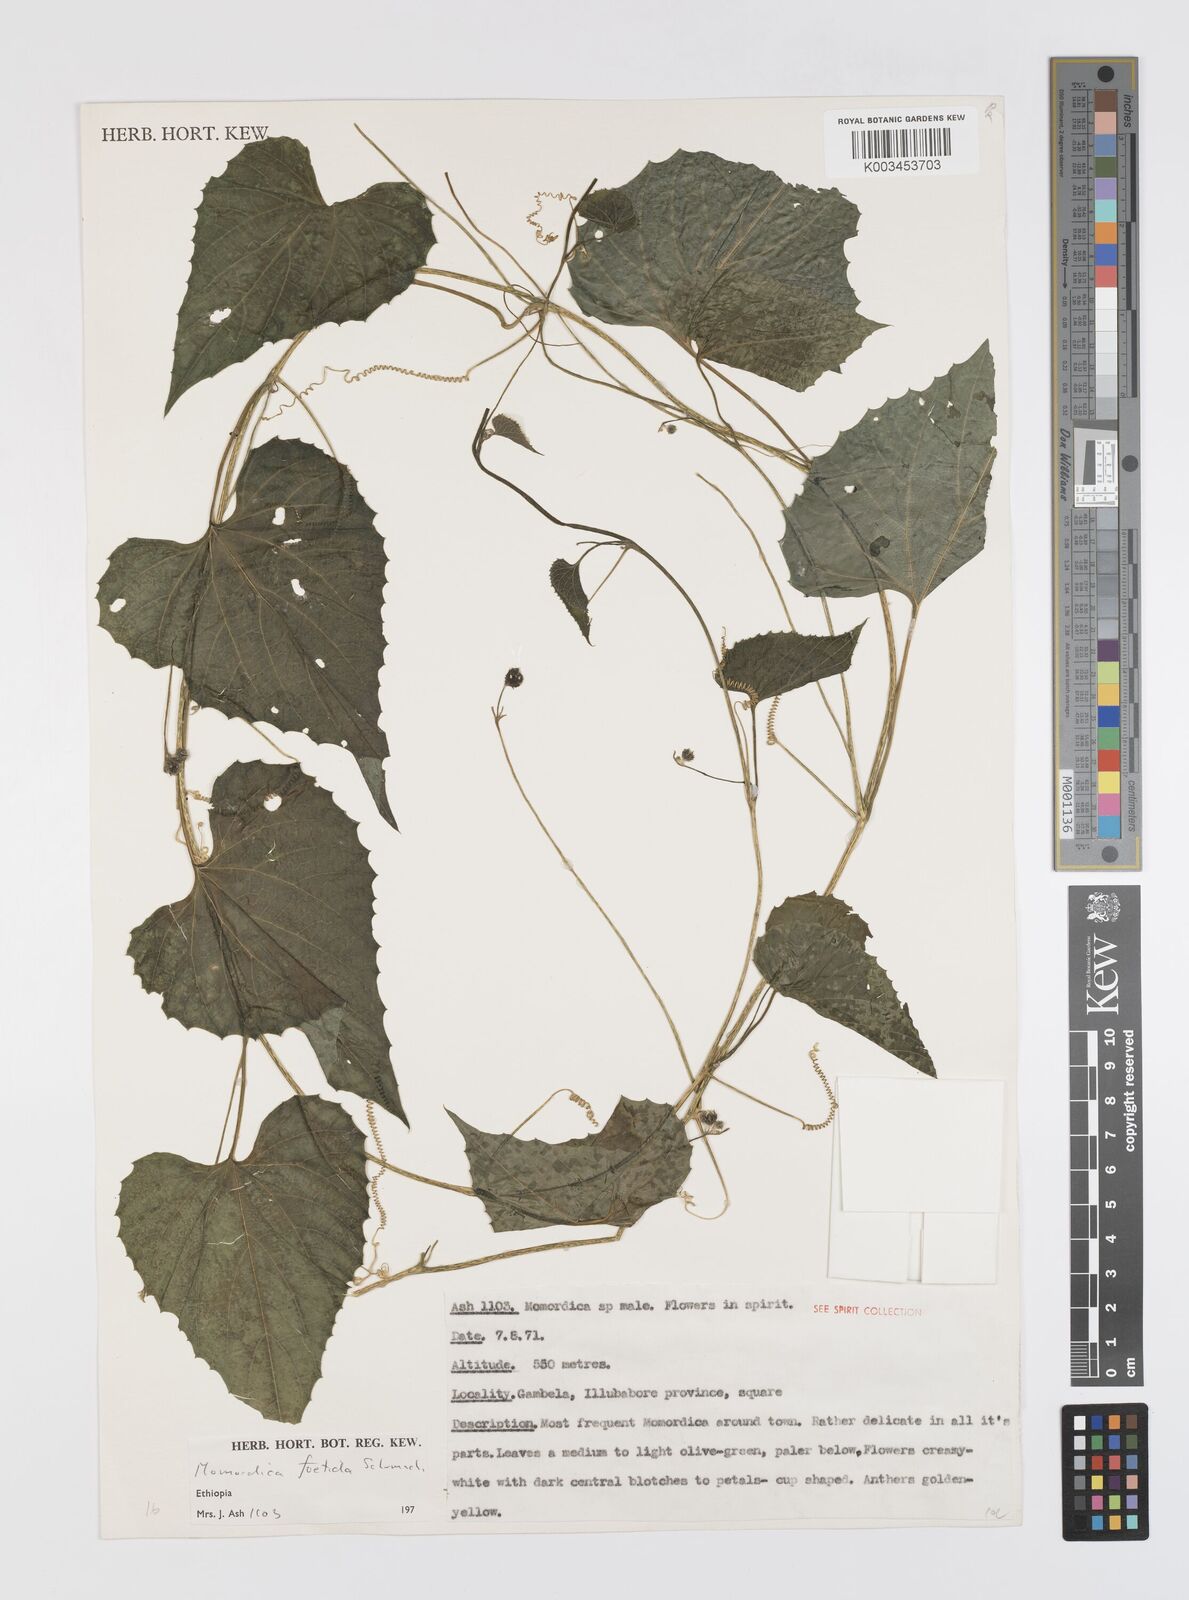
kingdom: Plantae
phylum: Tracheophyta
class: Magnoliopsida
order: Cucurbitales
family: Cucurbitaceae
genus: Momordica
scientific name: Momordica foetida
